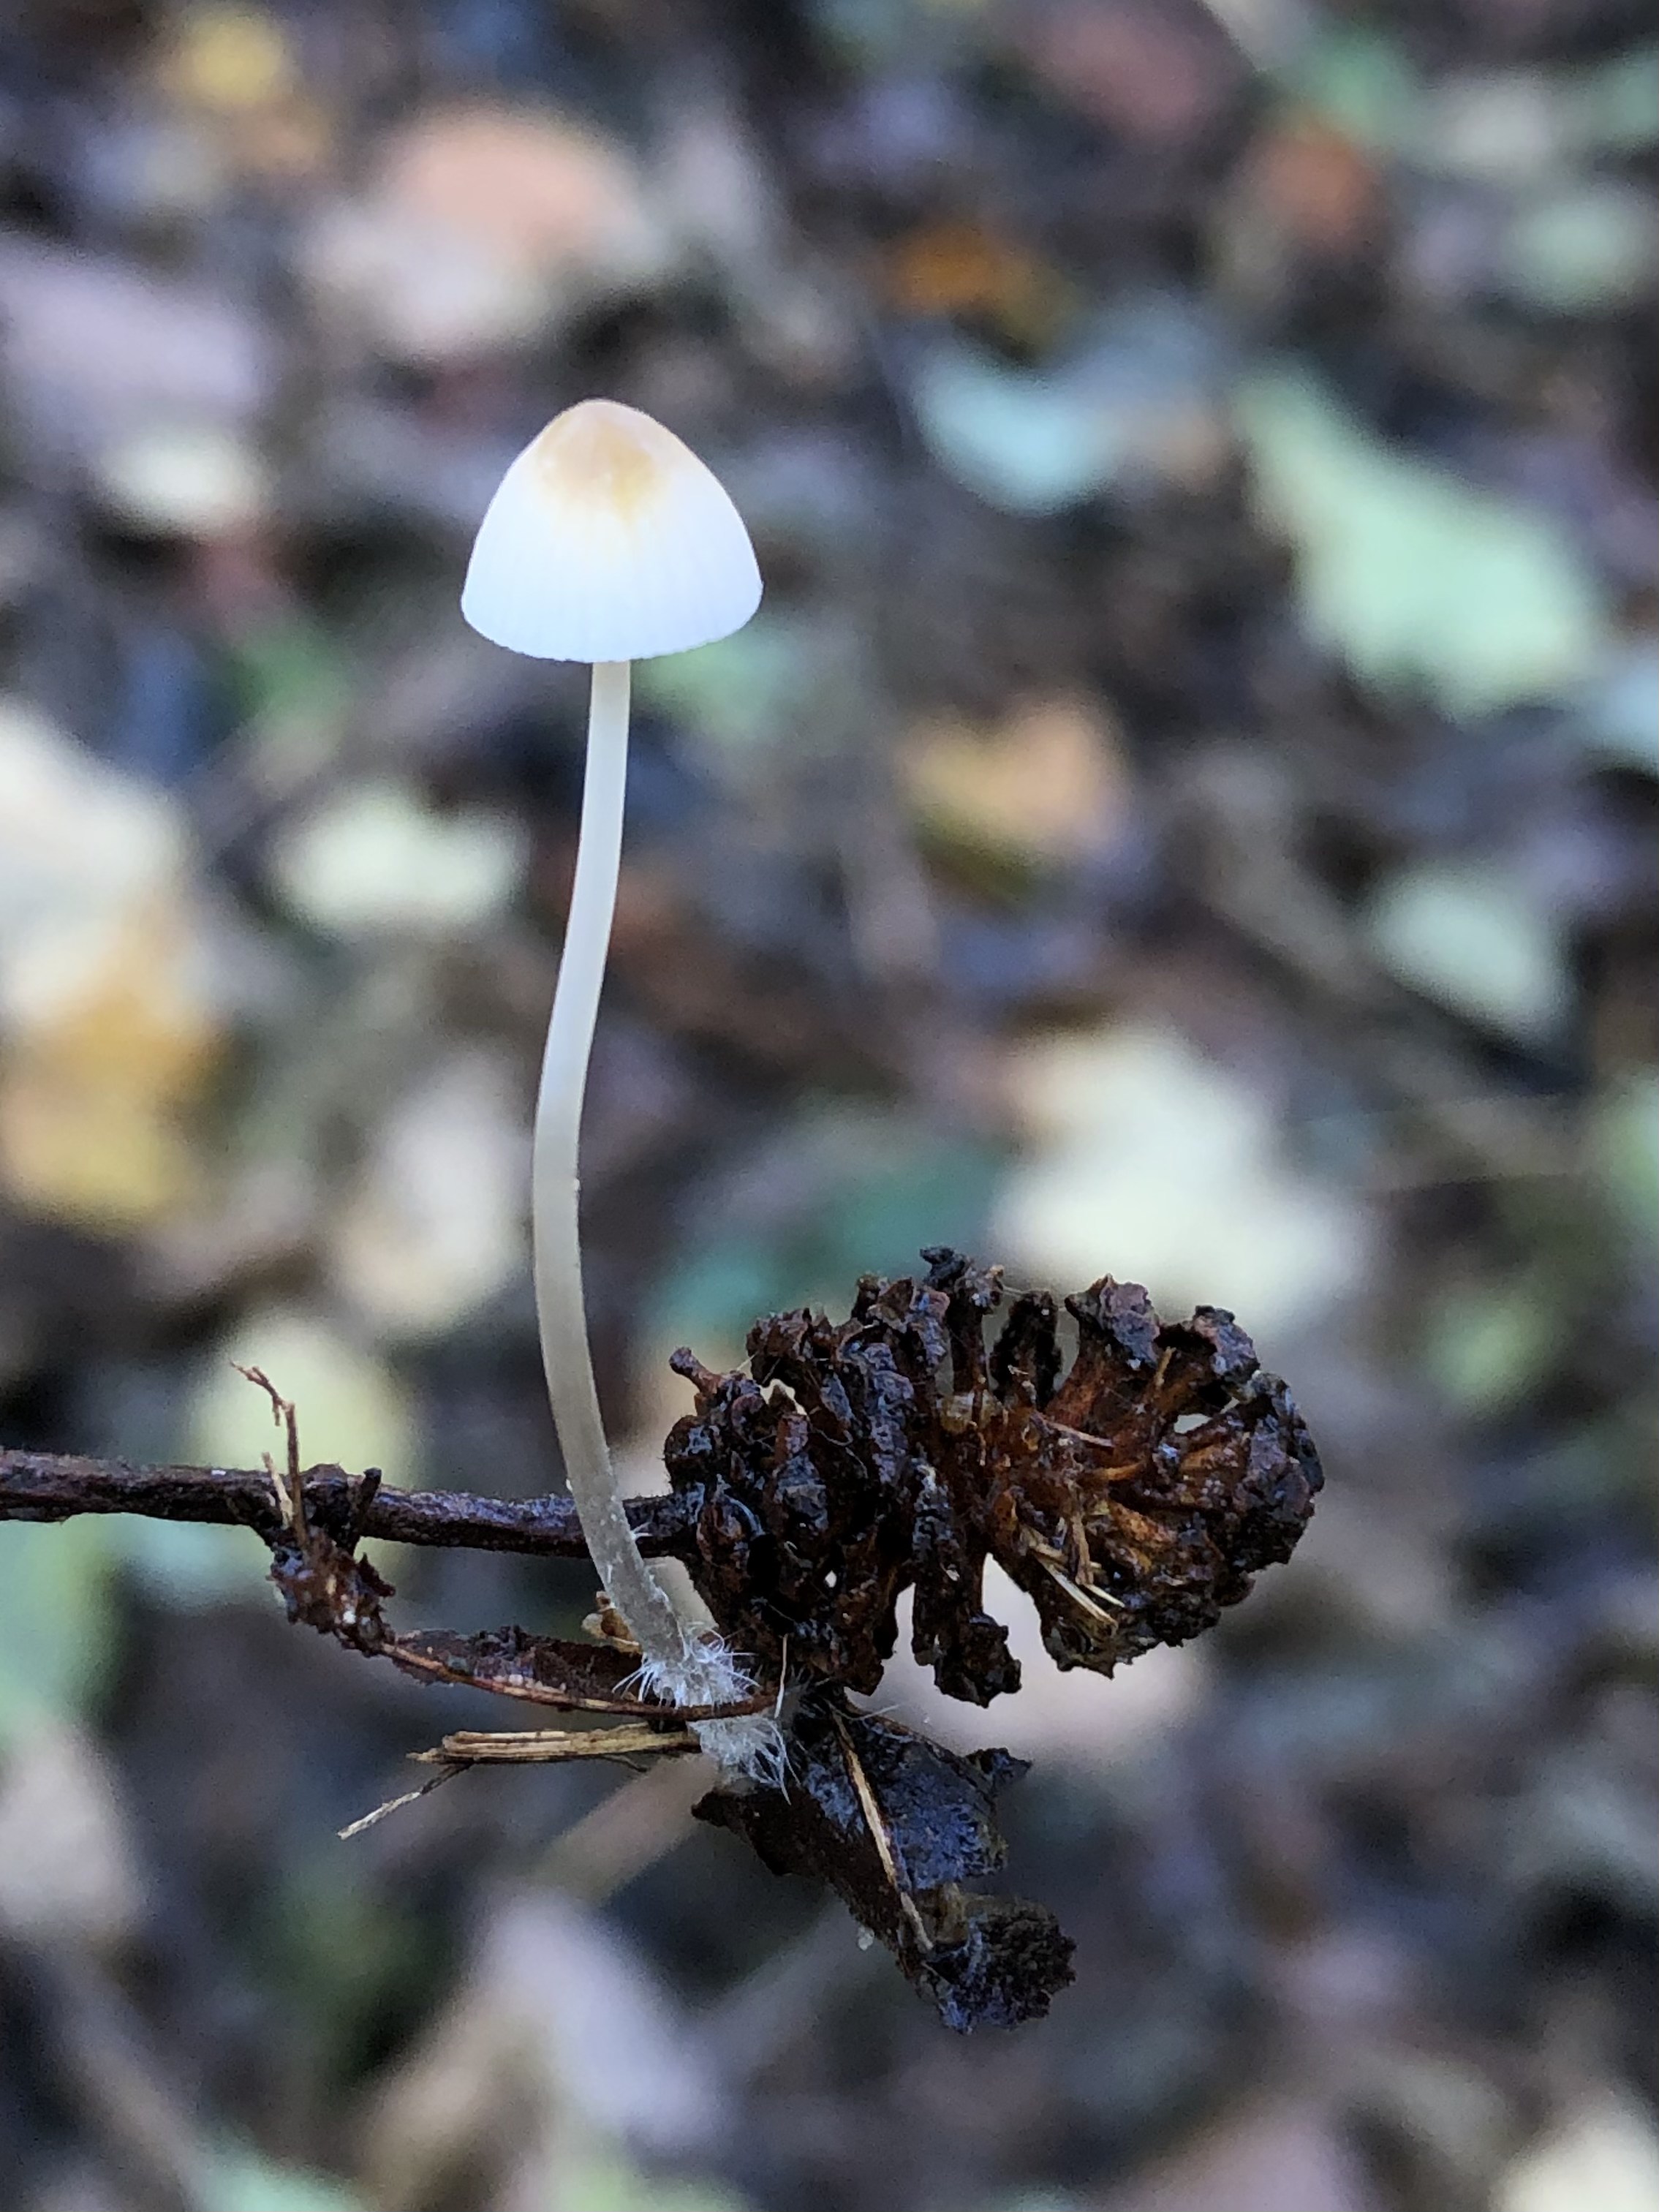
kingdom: Fungi
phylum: Basidiomycota
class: Agaricomycetes
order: Agaricales
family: Mycenaceae
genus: Mycena
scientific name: Mycena
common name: huesvamp
